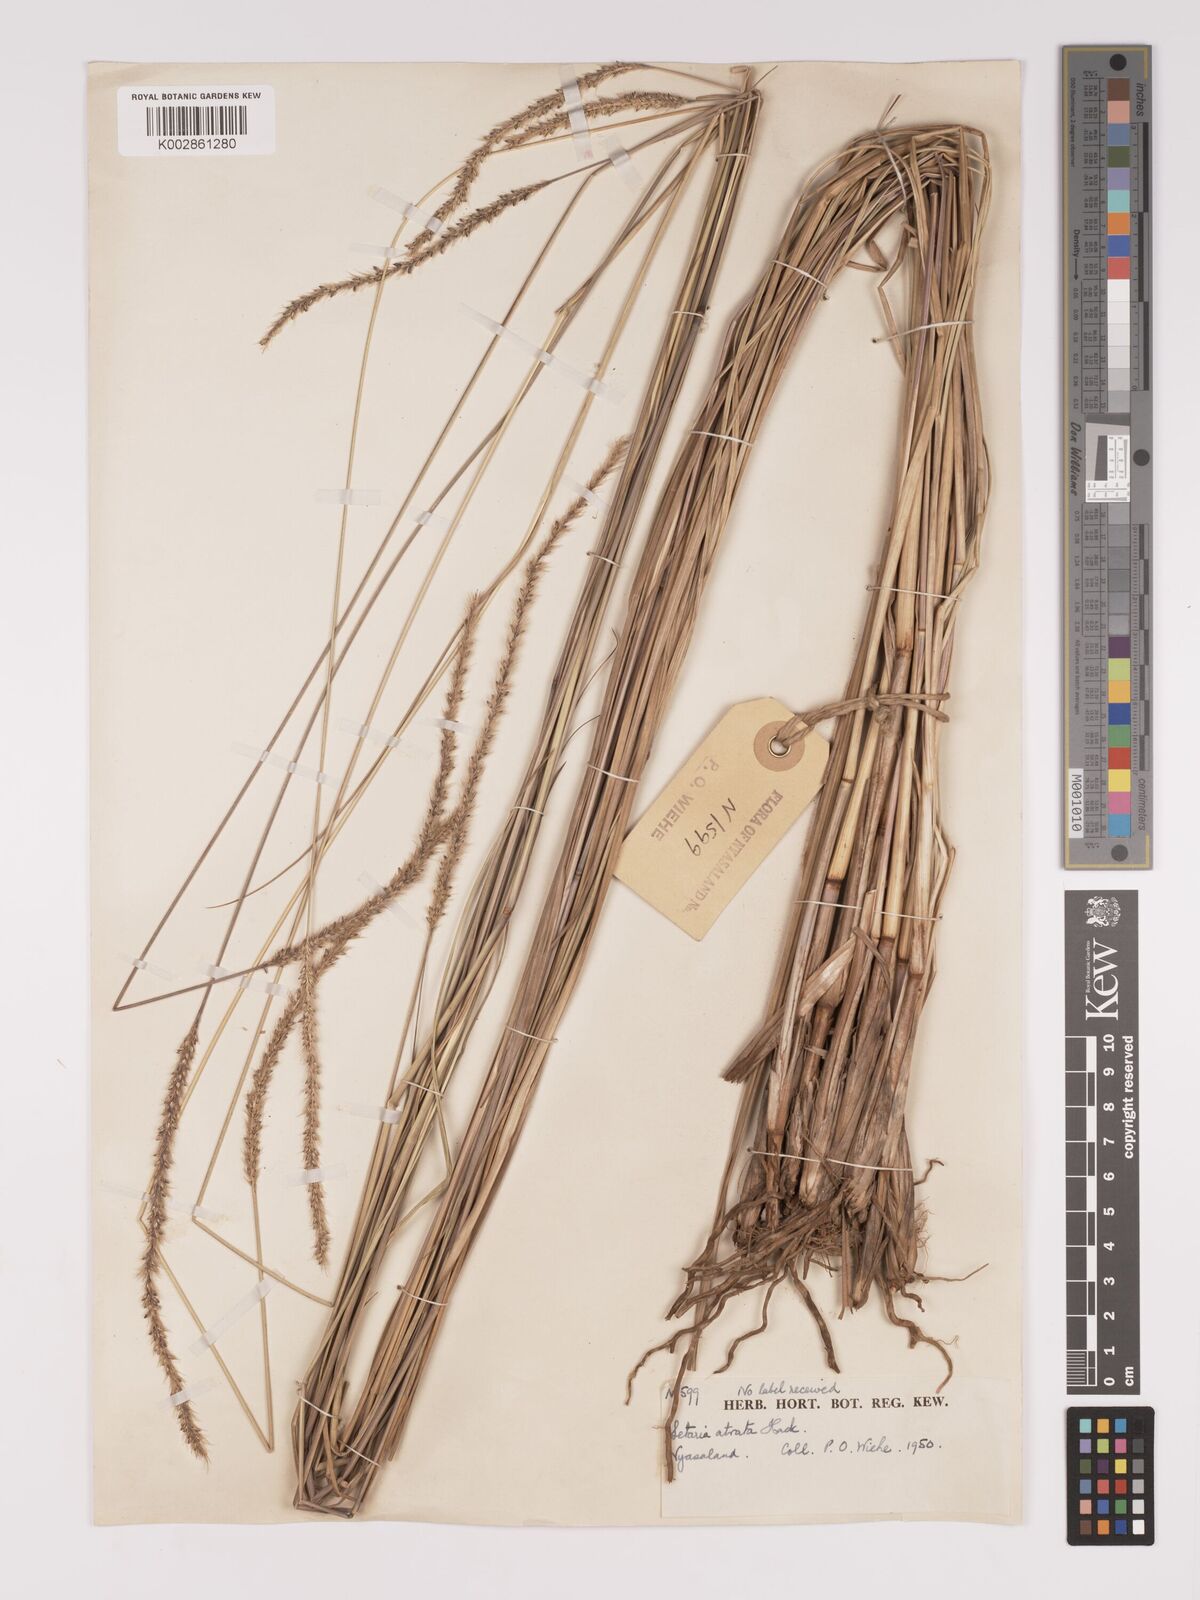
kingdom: Plantae
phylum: Tracheophyta
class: Liliopsida
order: Poales
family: Poaceae
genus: Setaria
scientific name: Setaria atrata
